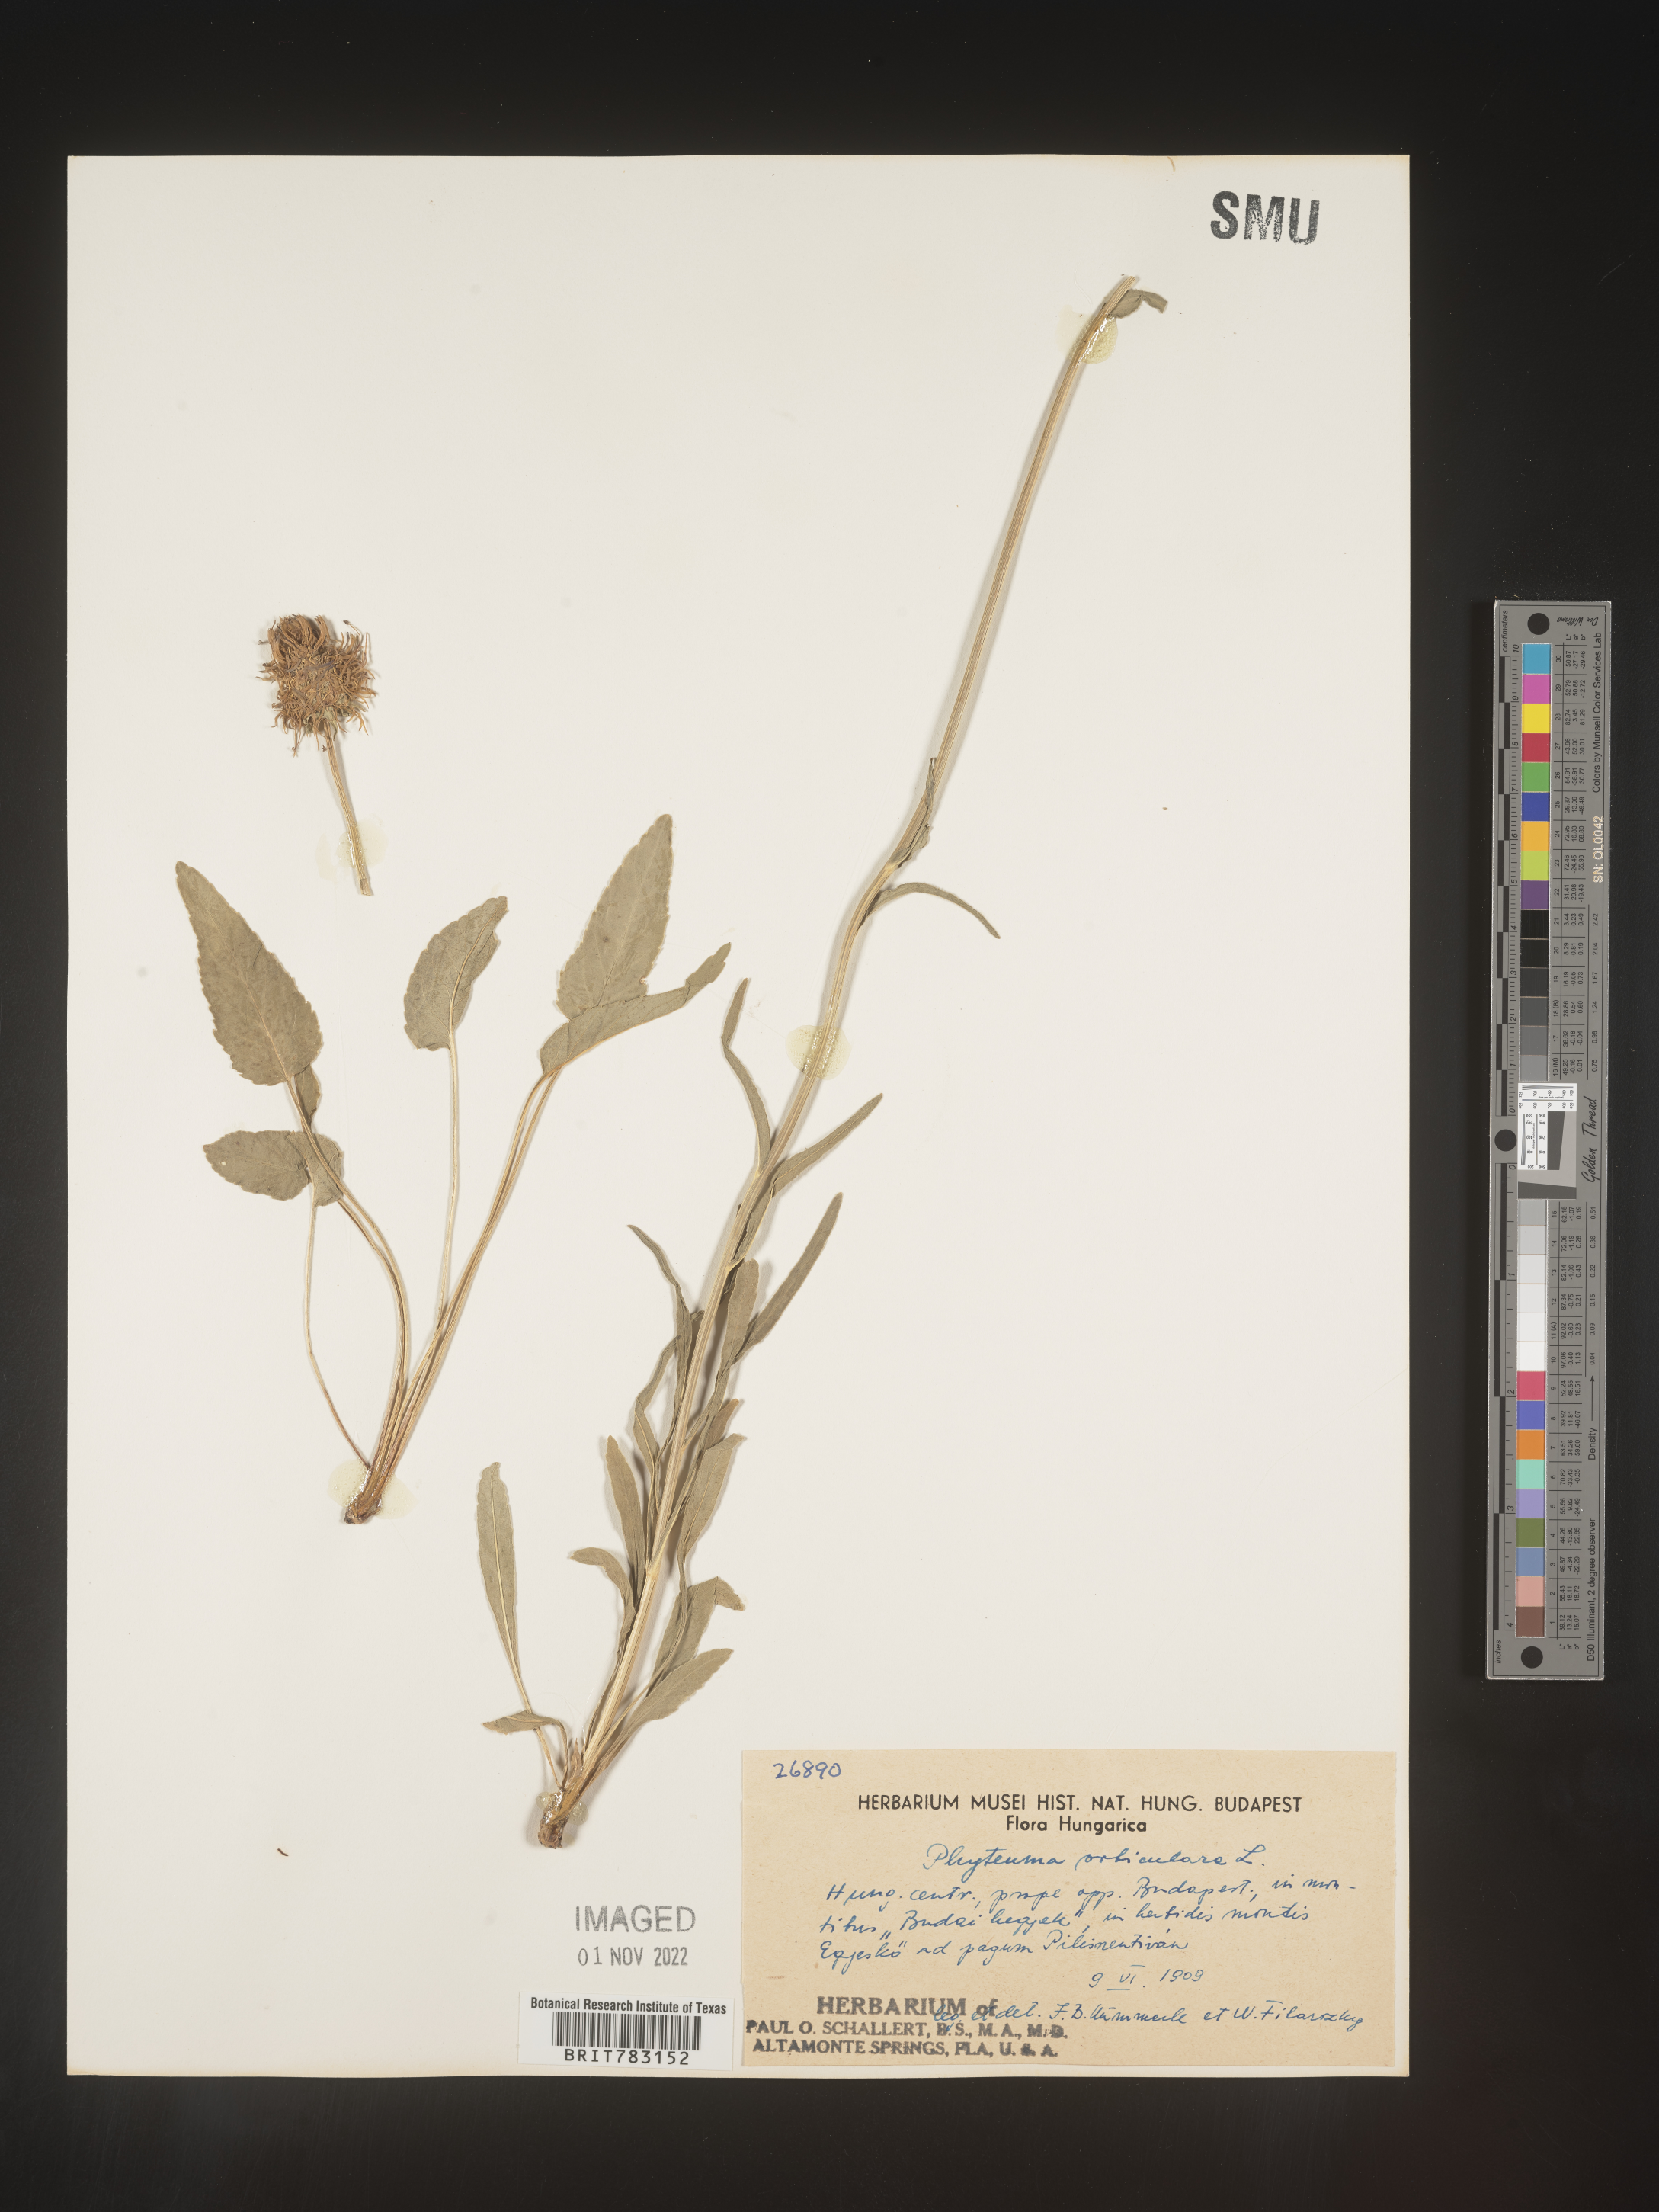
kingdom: Plantae
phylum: Tracheophyta
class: Magnoliopsida
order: Asterales
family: Campanulaceae
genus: Phyteuma
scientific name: Phyteuma
